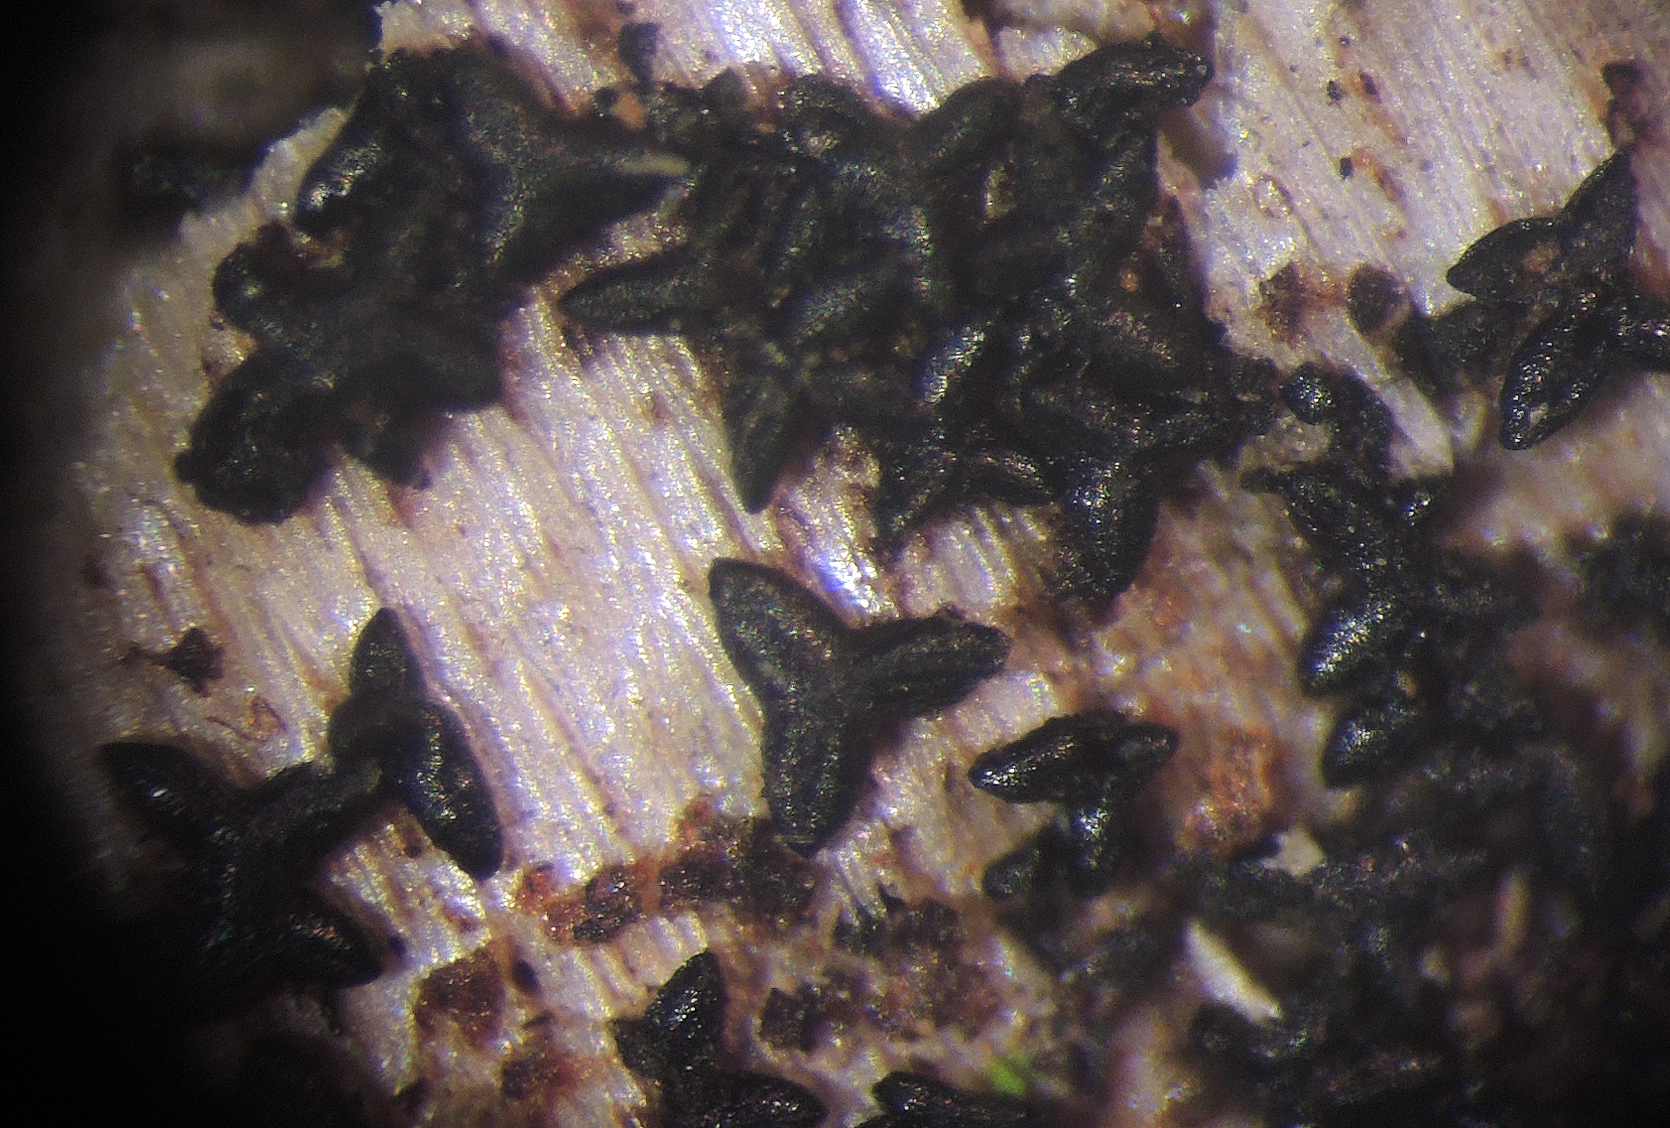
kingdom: Fungi
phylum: Ascomycota
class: Dothideomycetes
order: Mytilinidiales
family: Mytilinidiaceae
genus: Actidium
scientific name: Actidium hysterioides
